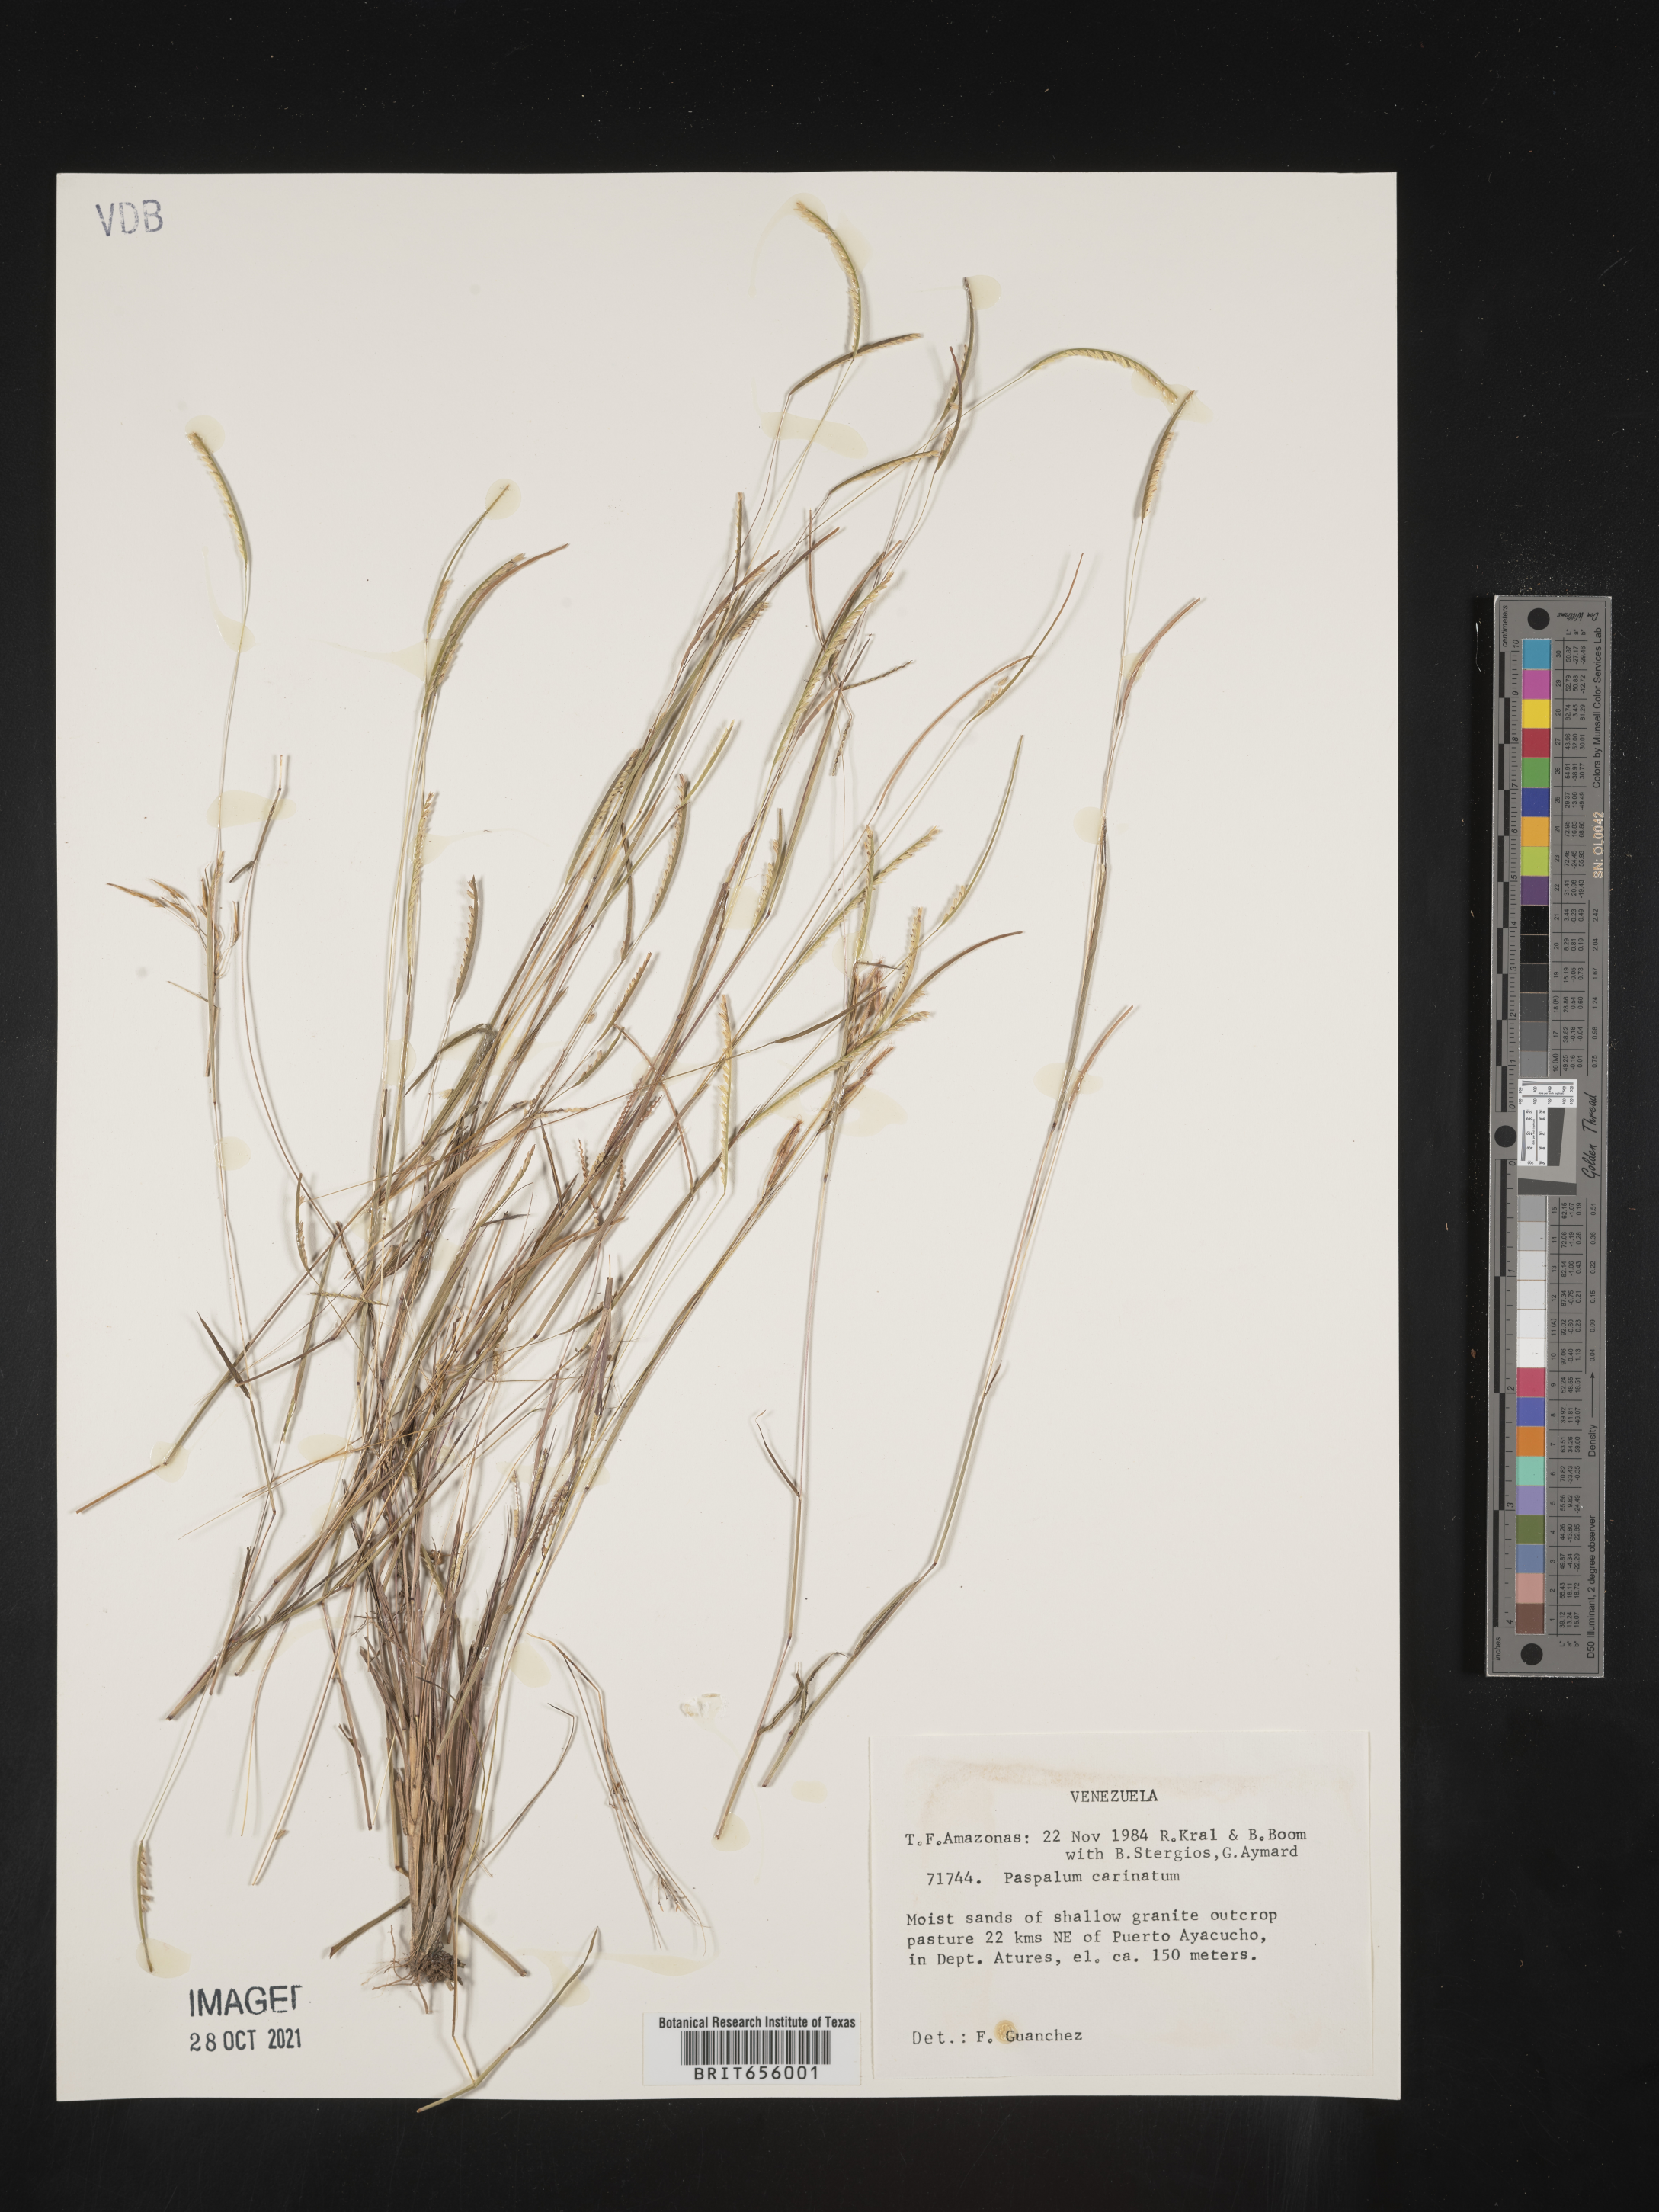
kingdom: Plantae
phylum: Tracheophyta
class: Liliopsida
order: Poales
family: Poaceae
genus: Paspalum
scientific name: Paspalum
